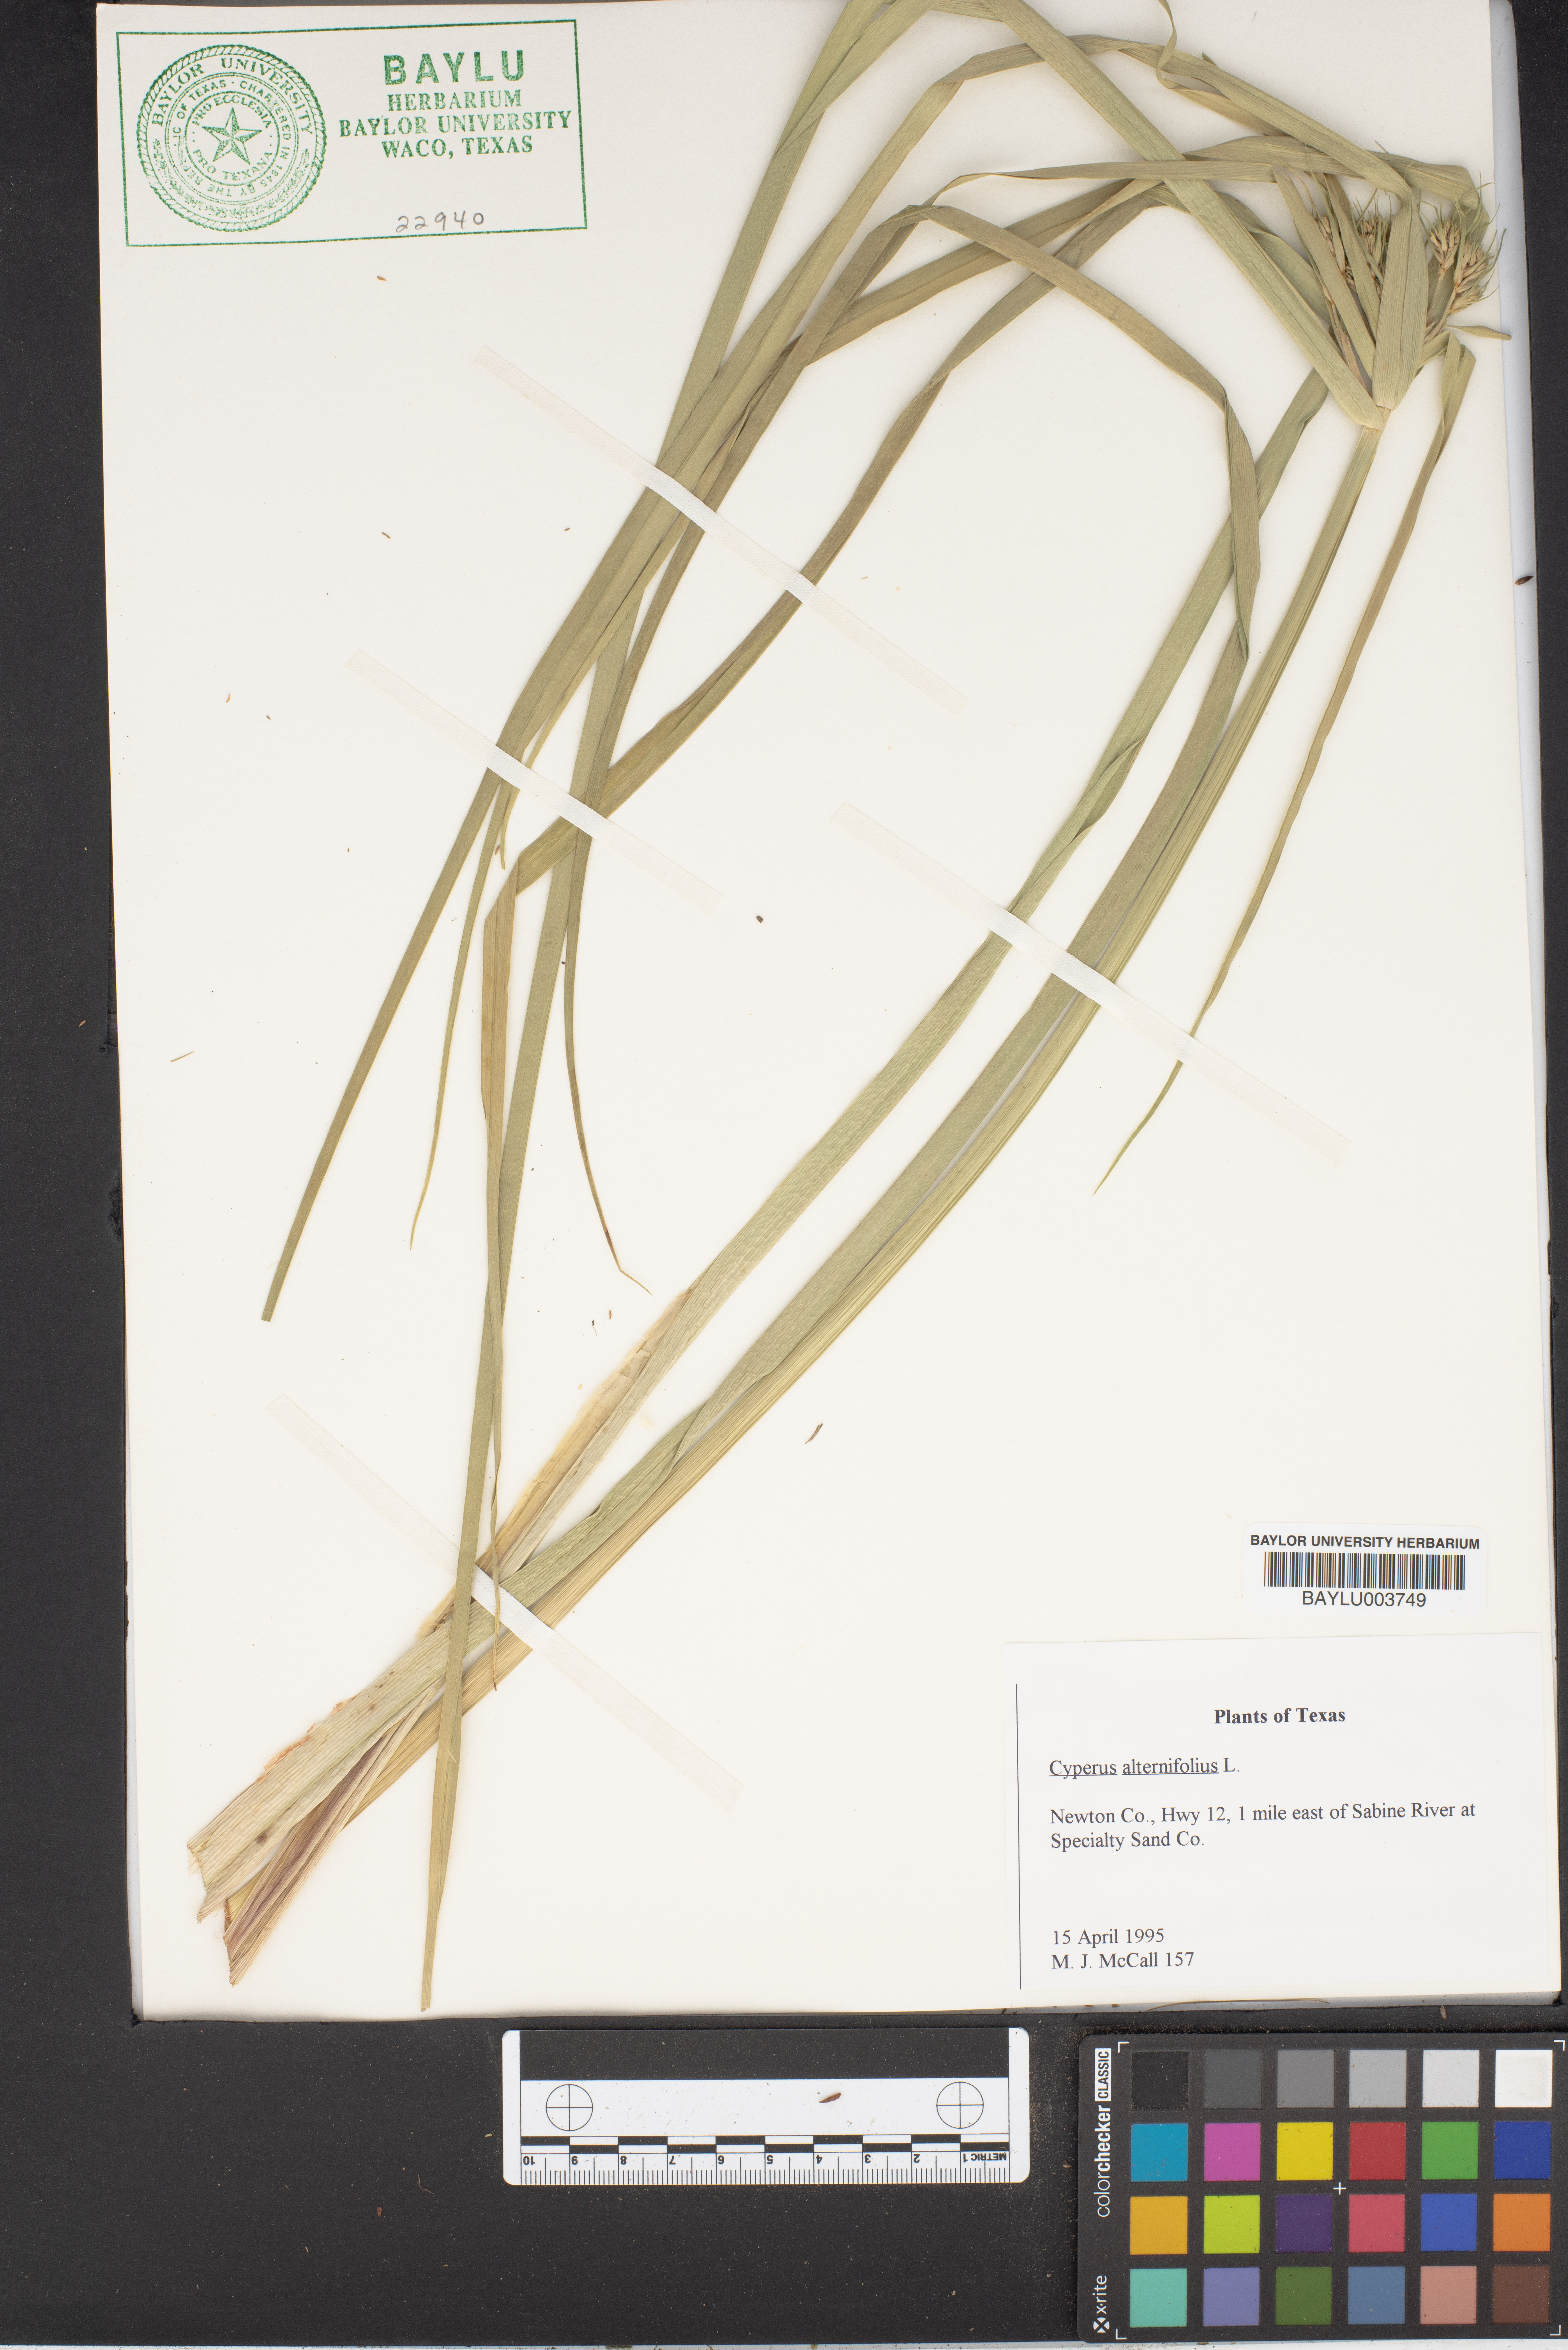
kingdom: Plantae
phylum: Tracheophyta
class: Liliopsida
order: Poales
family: Cyperaceae
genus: Cyperus
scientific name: Cyperus alterniflorus
